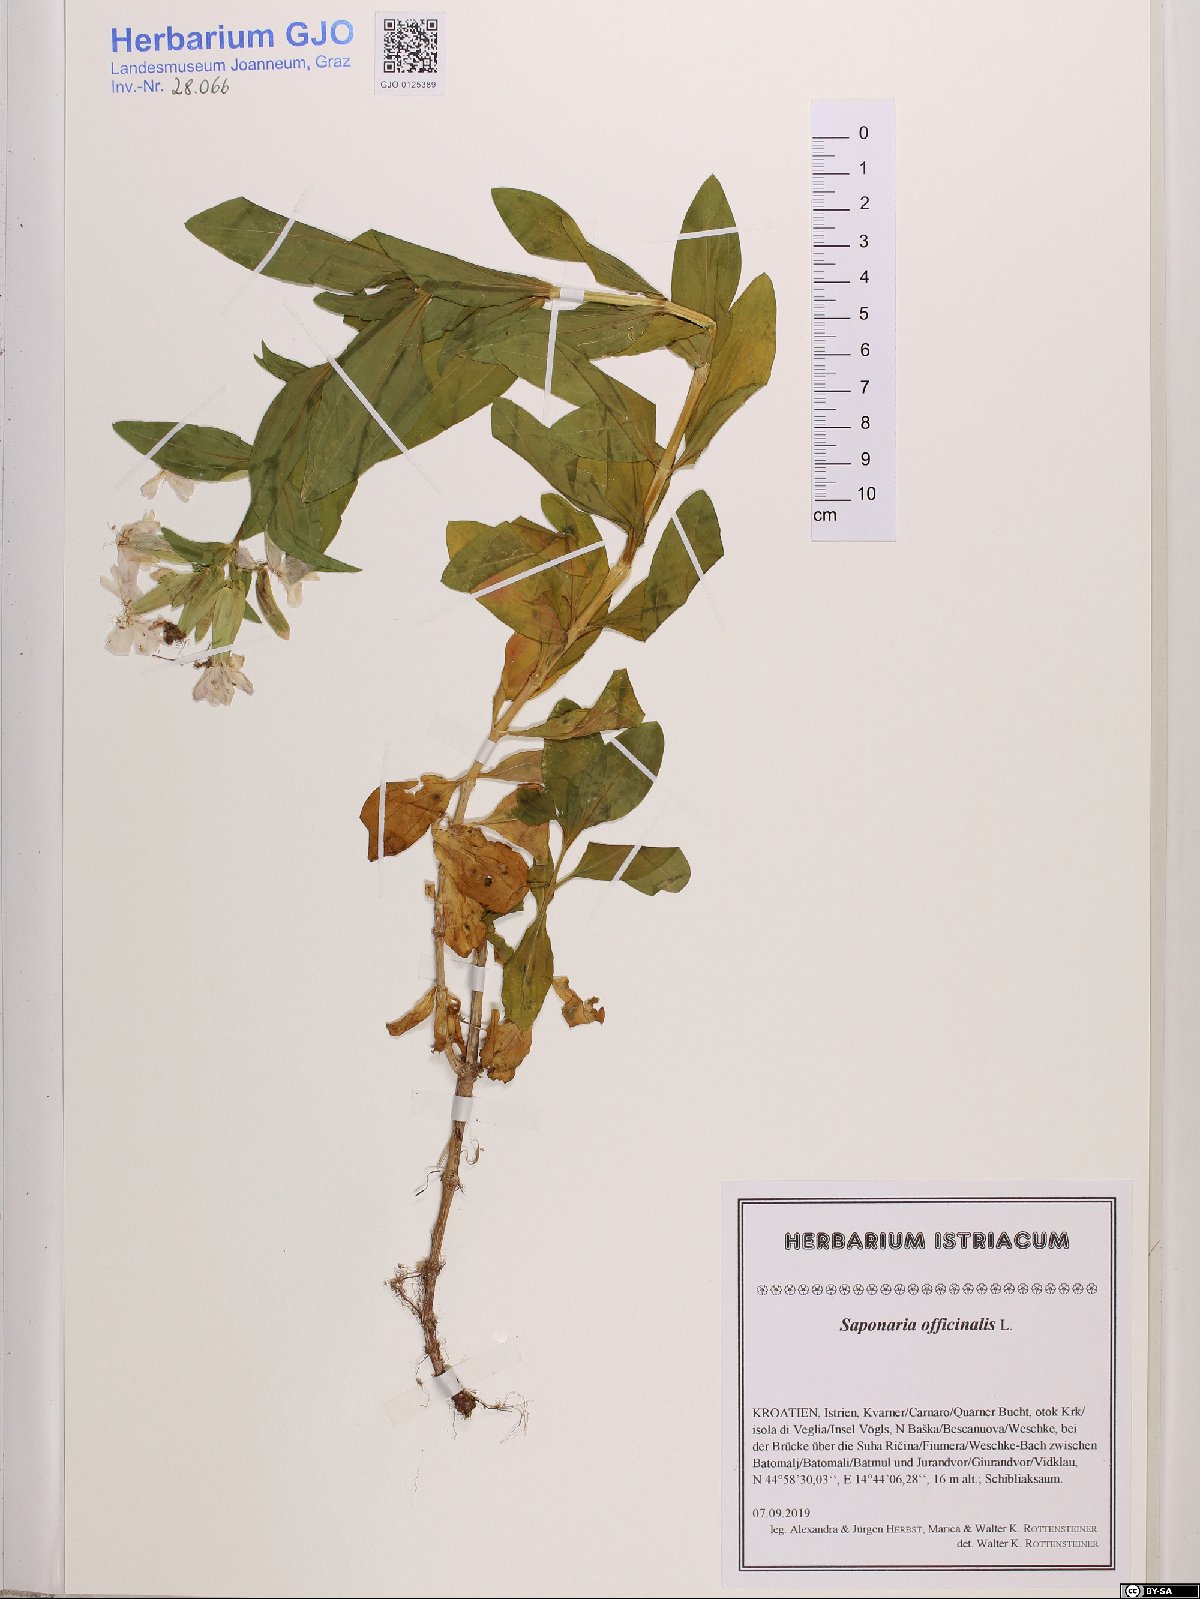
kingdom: Plantae
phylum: Tracheophyta
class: Magnoliopsida
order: Caryophyllales
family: Caryophyllaceae
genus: Saponaria
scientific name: Saponaria orientalis
